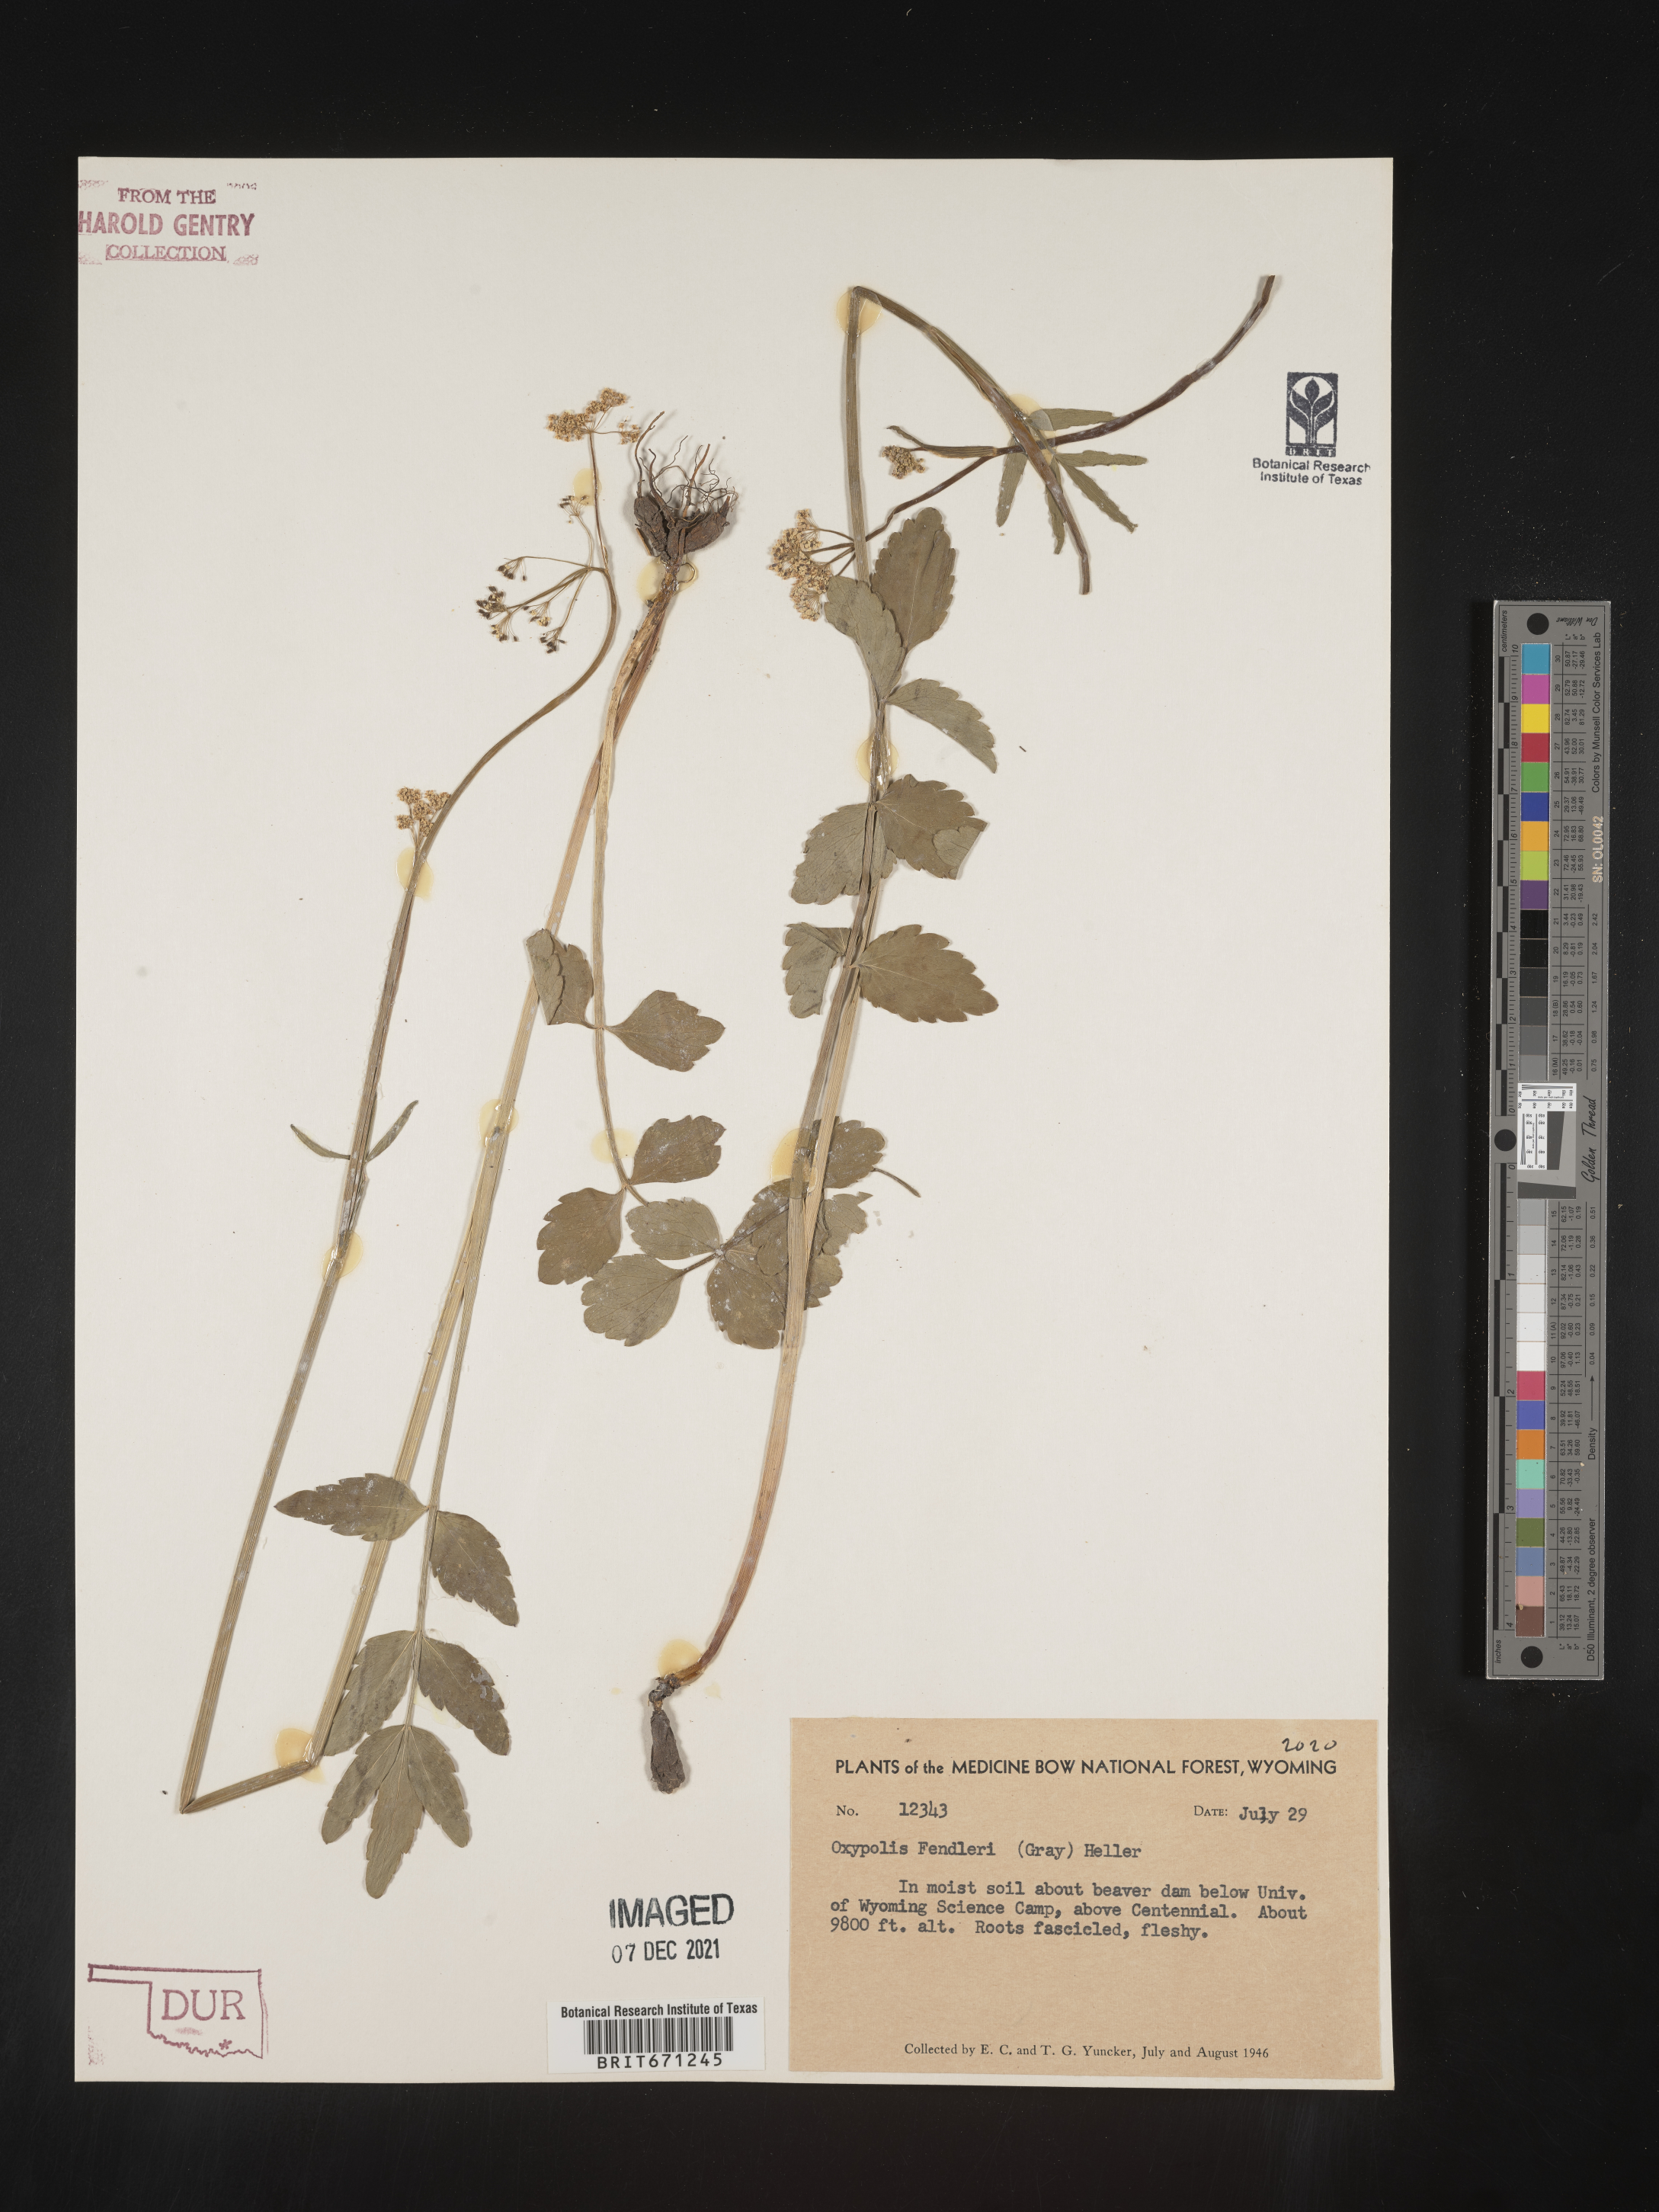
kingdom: Plantae
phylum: Tracheophyta
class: Magnoliopsida
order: Apiales
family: Apiaceae
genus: Oxypolis
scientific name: Oxypolis fendleri
